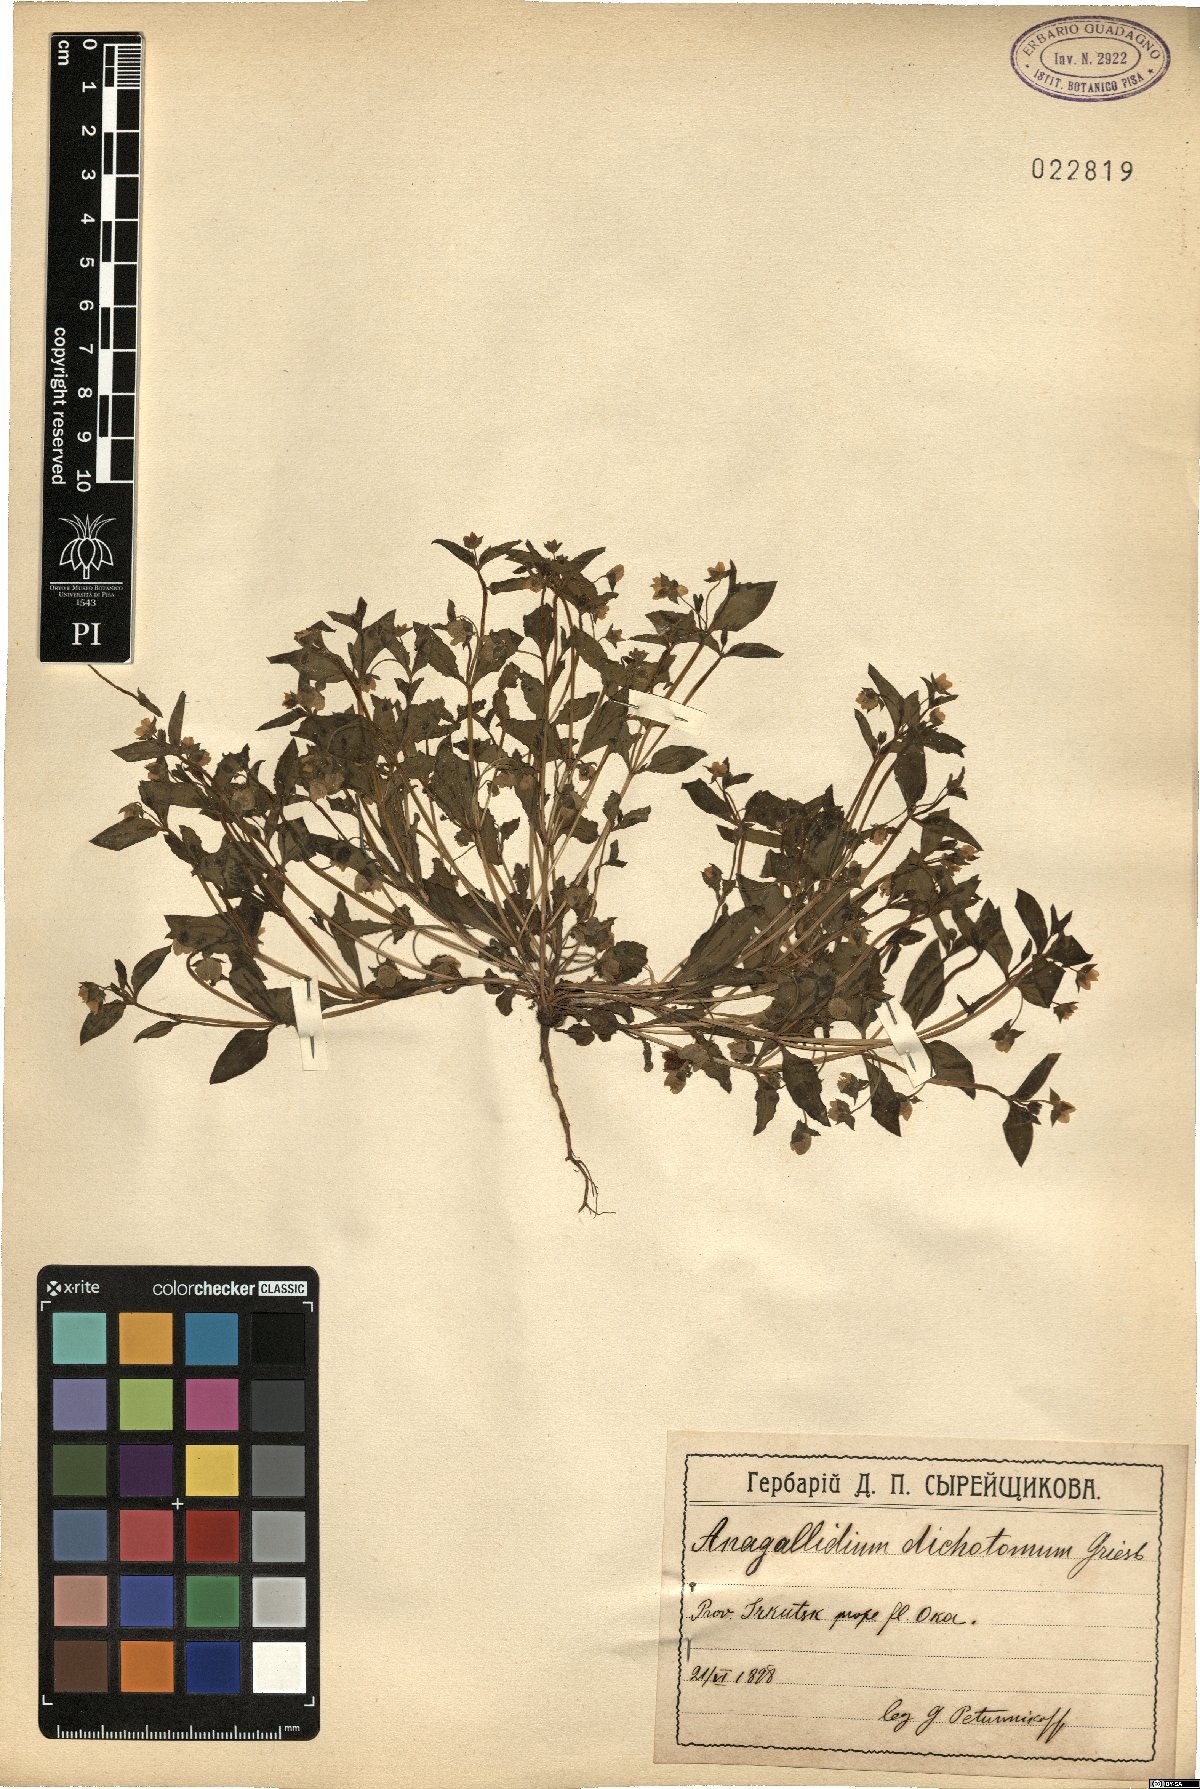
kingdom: Plantae
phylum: Tracheophyta
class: Magnoliopsida
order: Gentianales
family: Gentianaceae
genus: Swertia
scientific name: Swertia dichotoma
